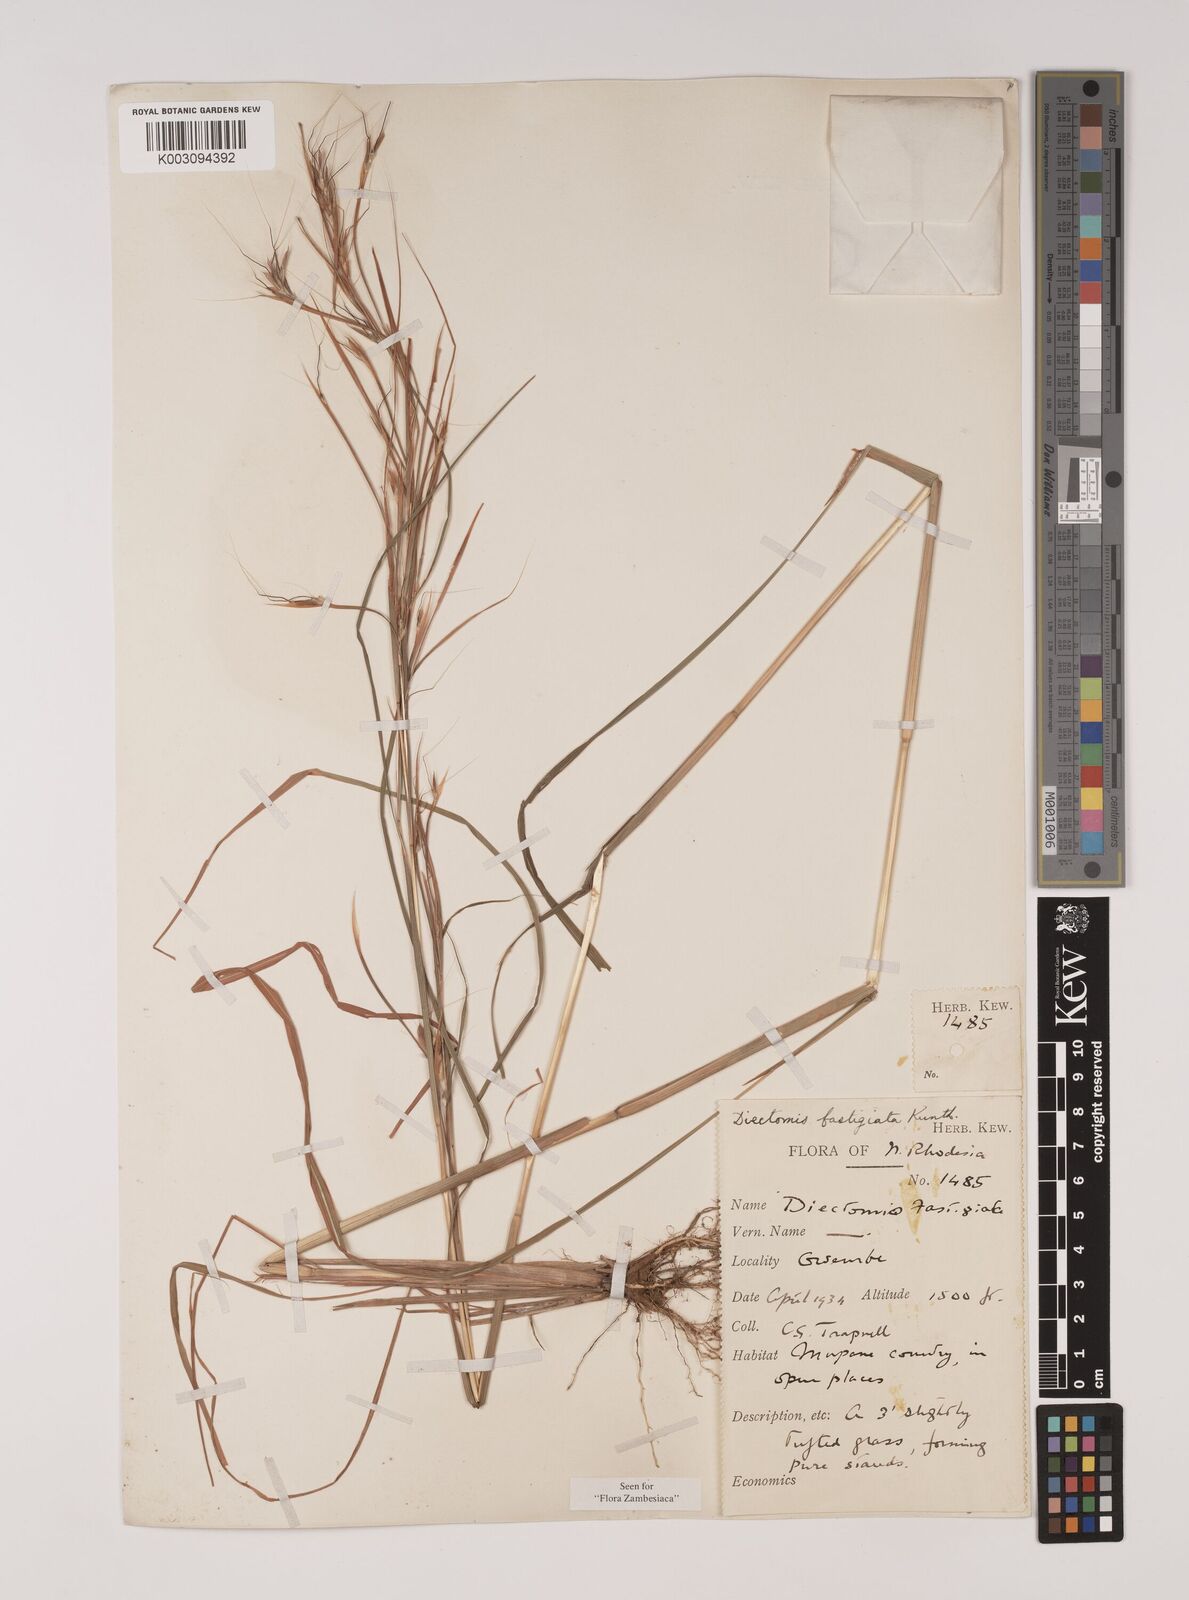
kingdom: Plantae
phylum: Tracheophyta
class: Liliopsida
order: Poales
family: Poaceae
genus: Diectomis
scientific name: Diectomis fastigiata
